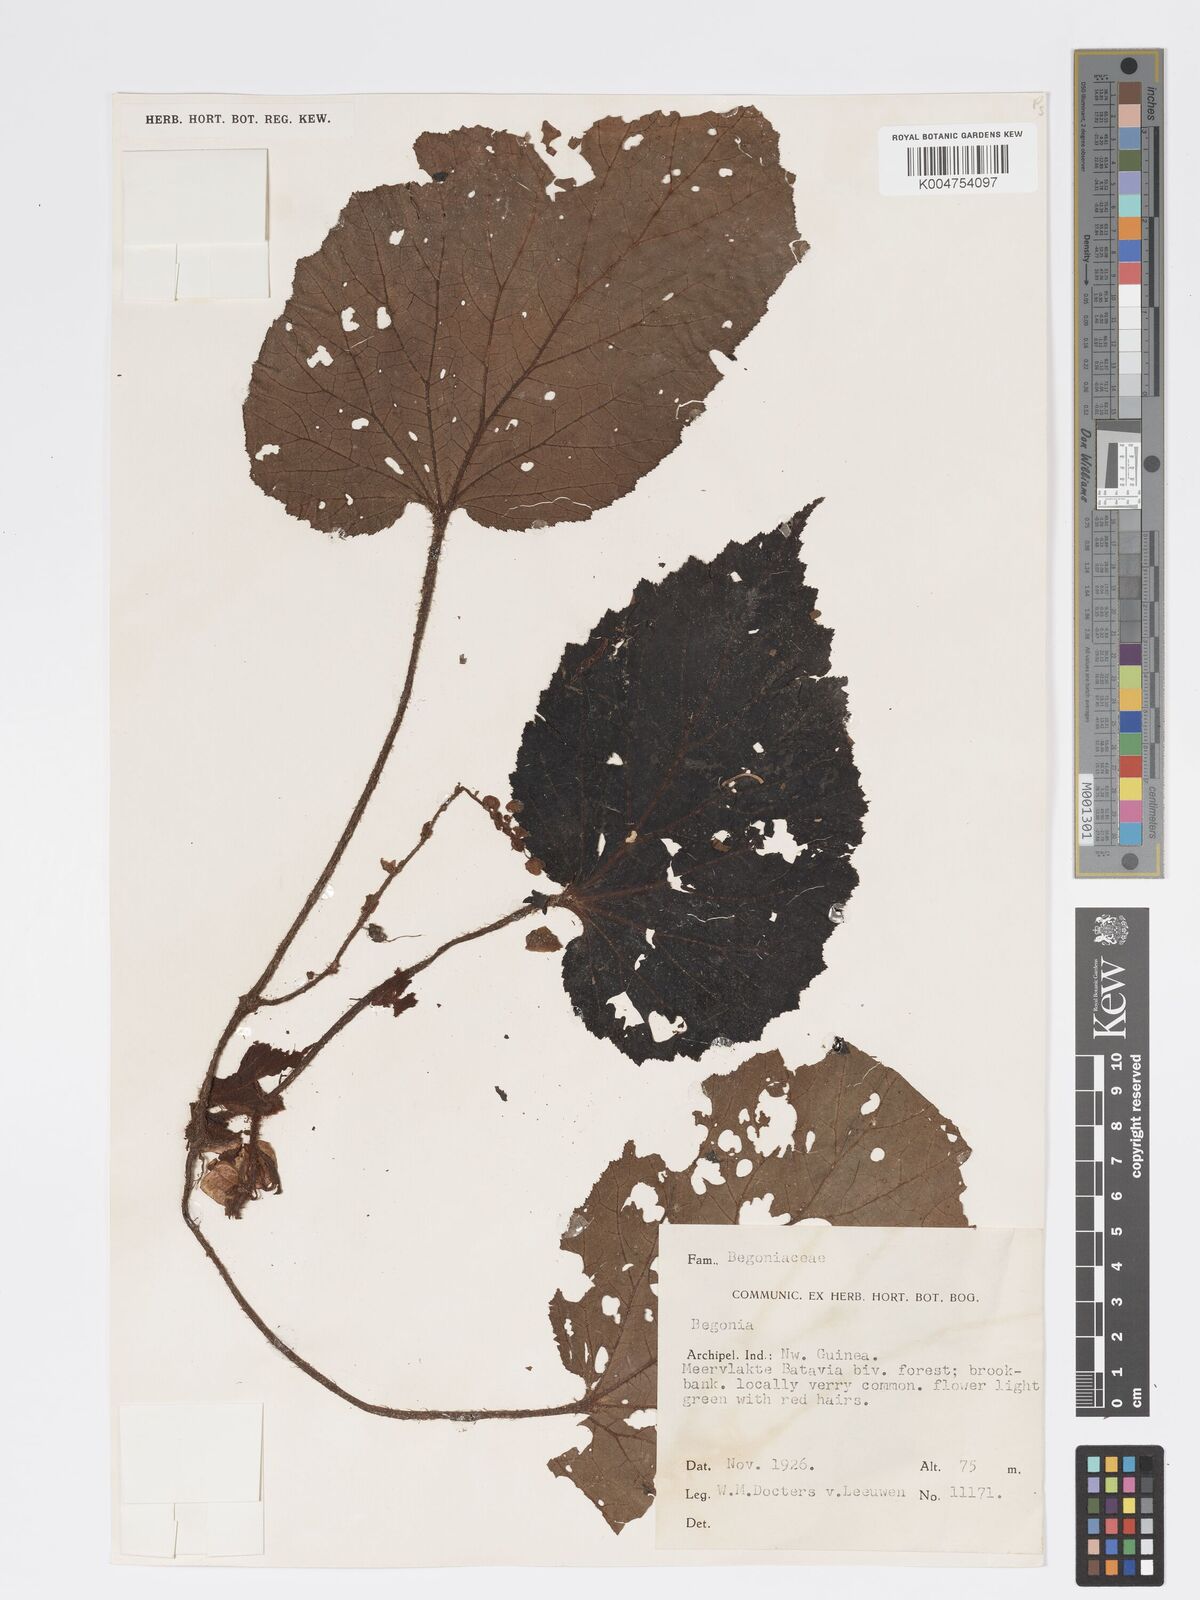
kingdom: Plantae
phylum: Tracheophyta
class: Magnoliopsida
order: Cucurbitales
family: Begoniaceae
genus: Begonia
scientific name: Begonia
